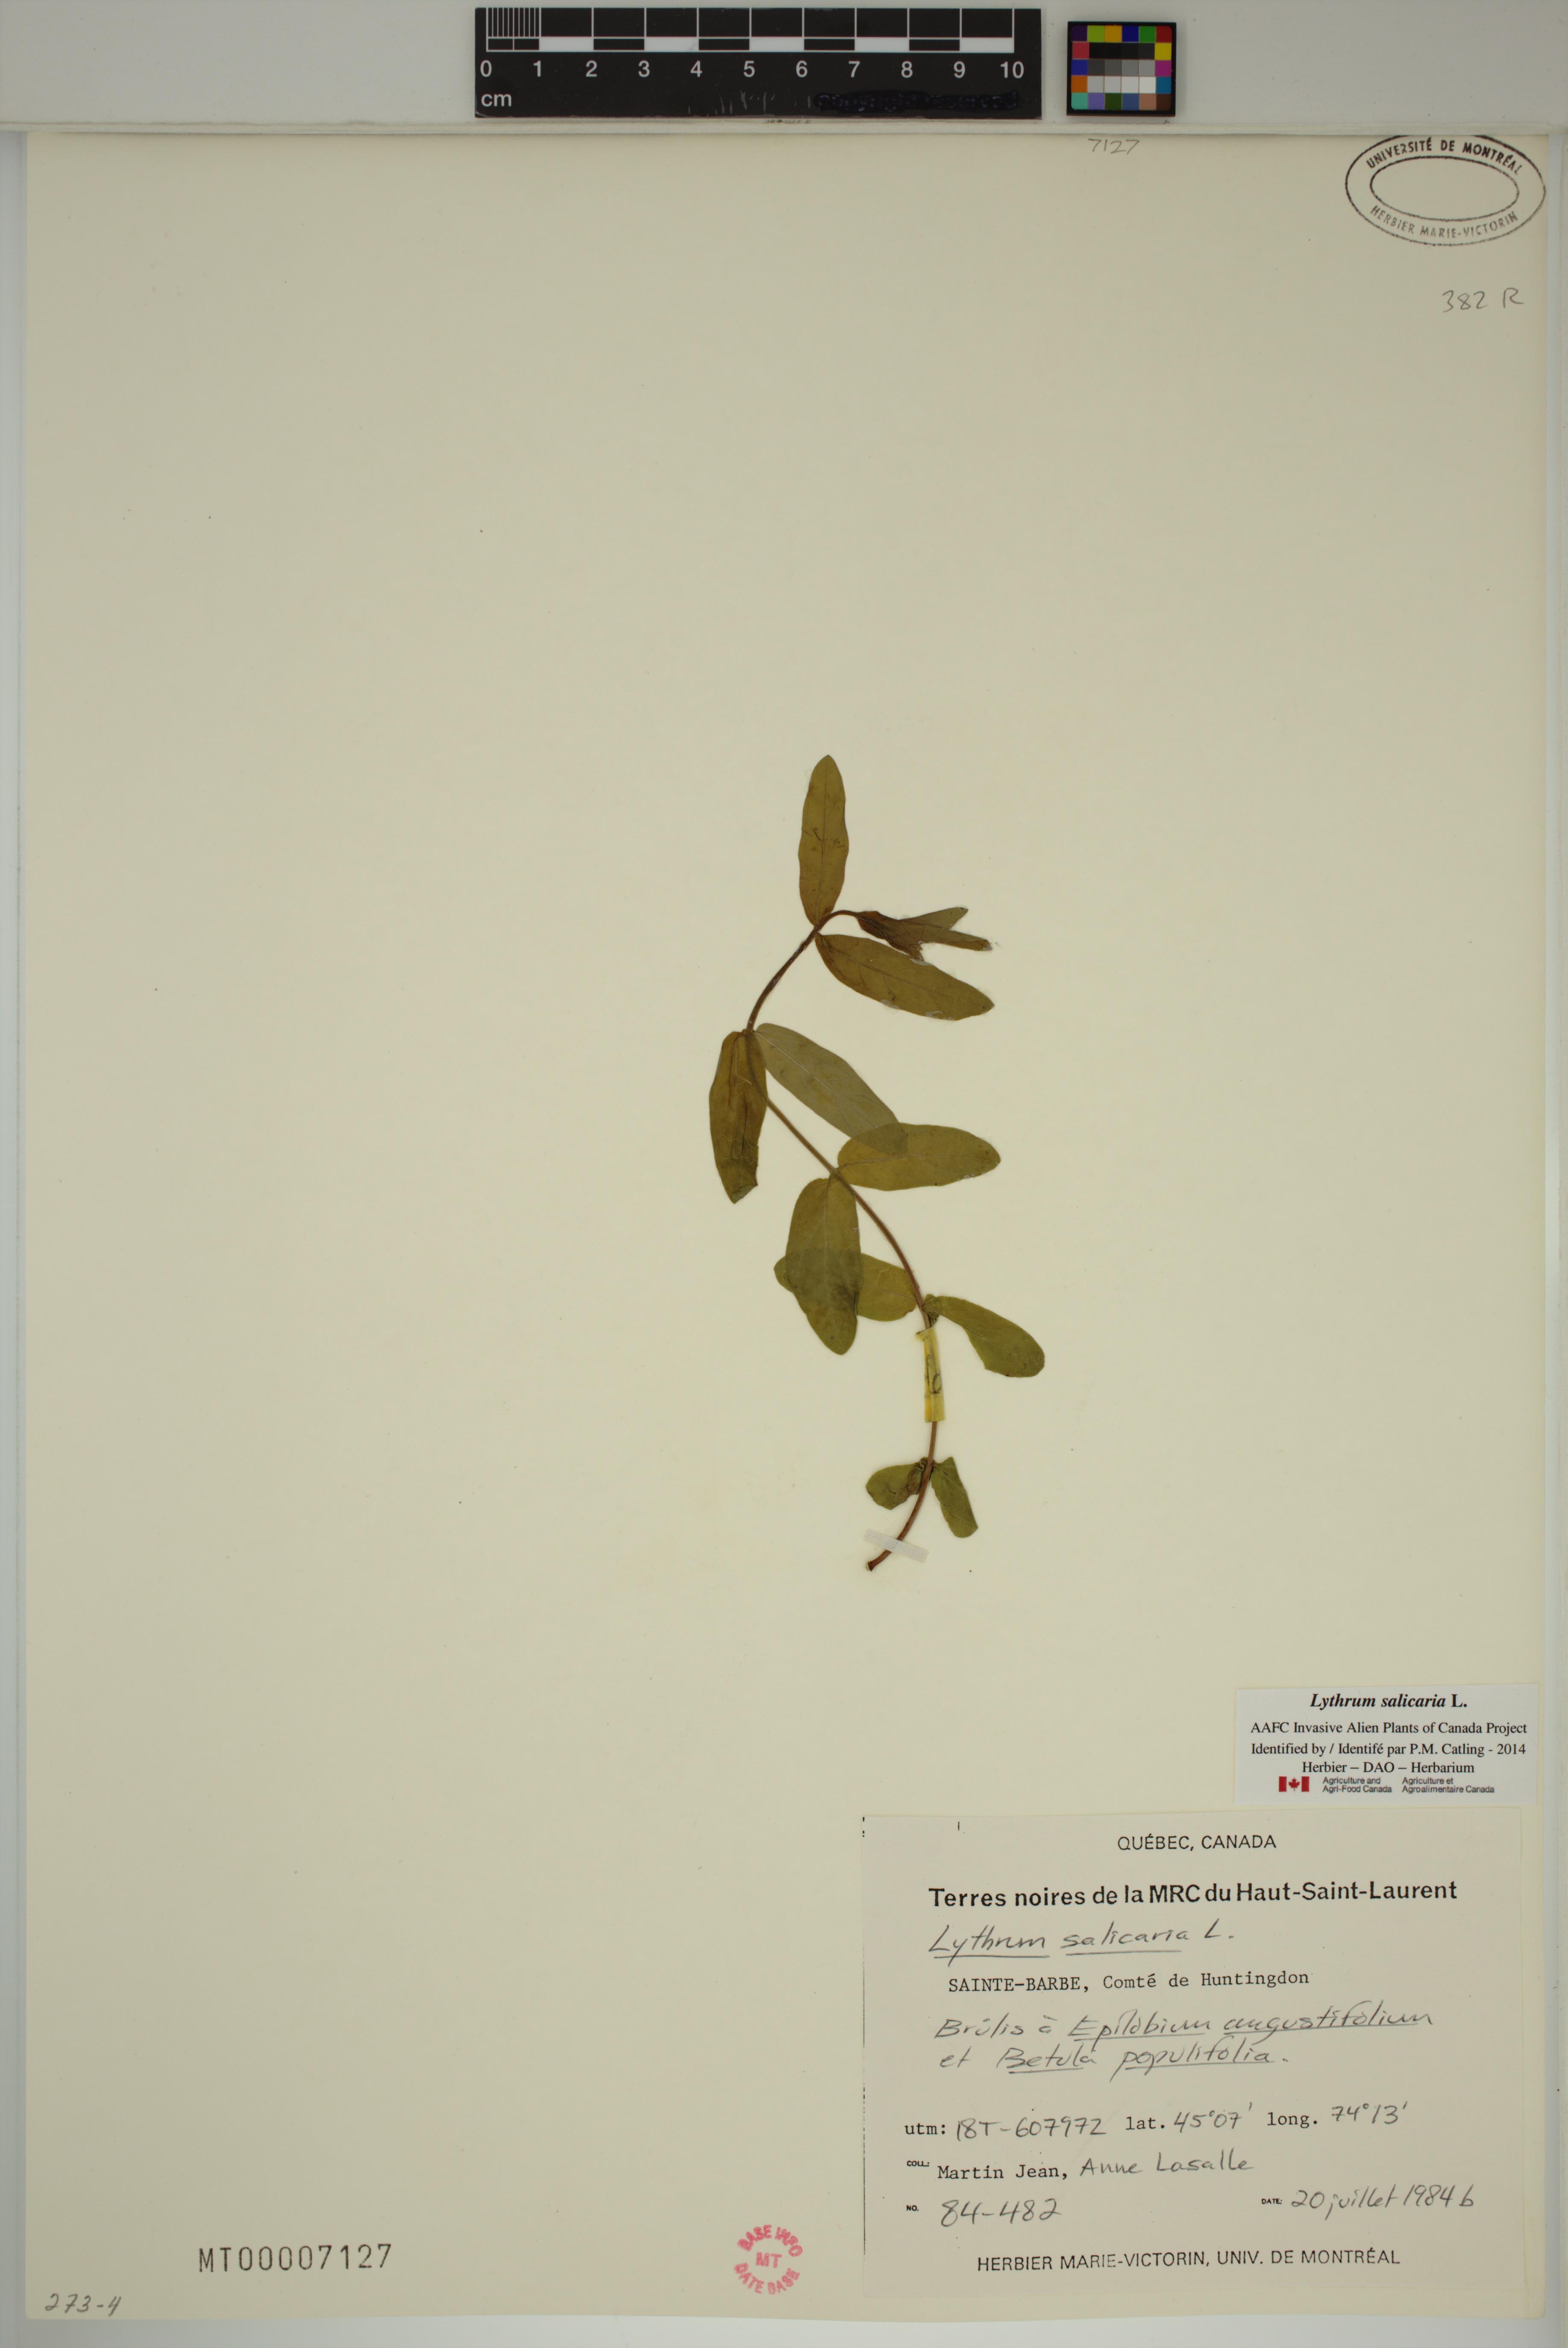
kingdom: Plantae
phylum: Tracheophyta
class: Magnoliopsida
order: Myrtales
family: Lythraceae
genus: Lythrum
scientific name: Lythrum salicaria
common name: Purple loosestrife
